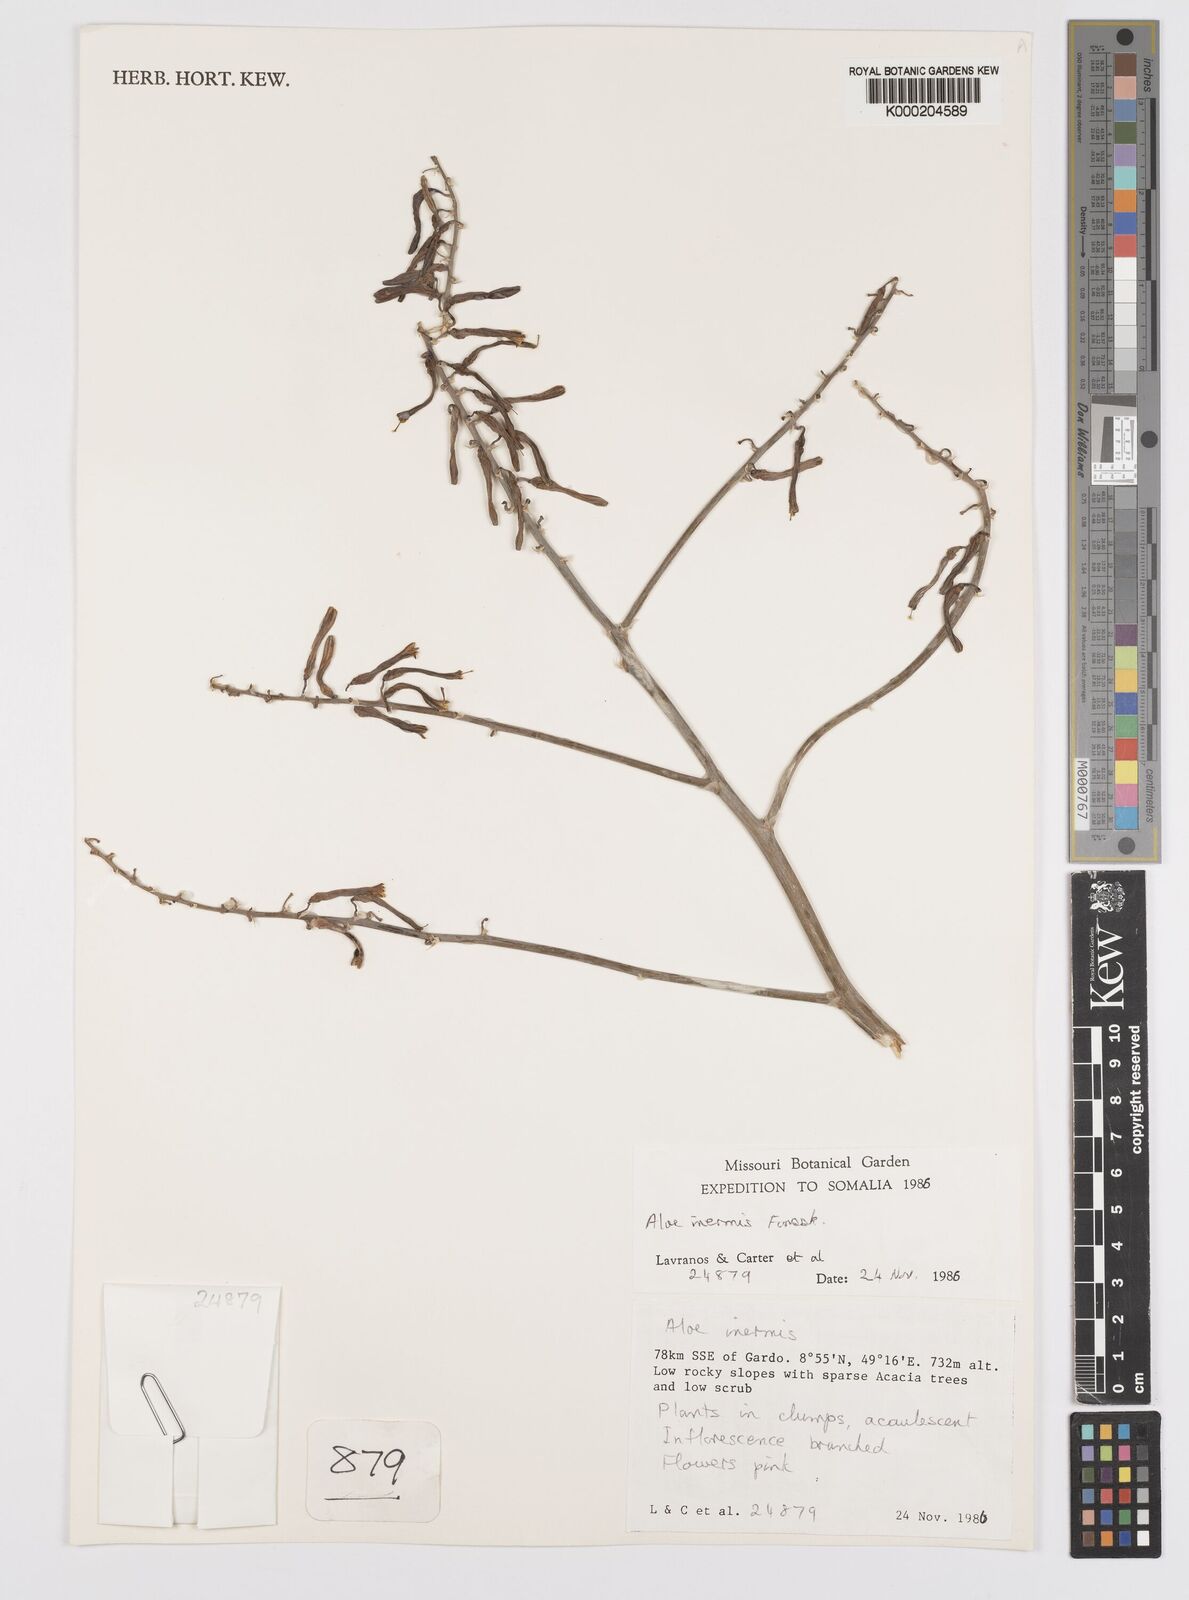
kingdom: Plantae
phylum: Tracheophyta
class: Liliopsida
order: Asparagales
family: Asphodelaceae
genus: Aloe
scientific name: Aloe luntii
